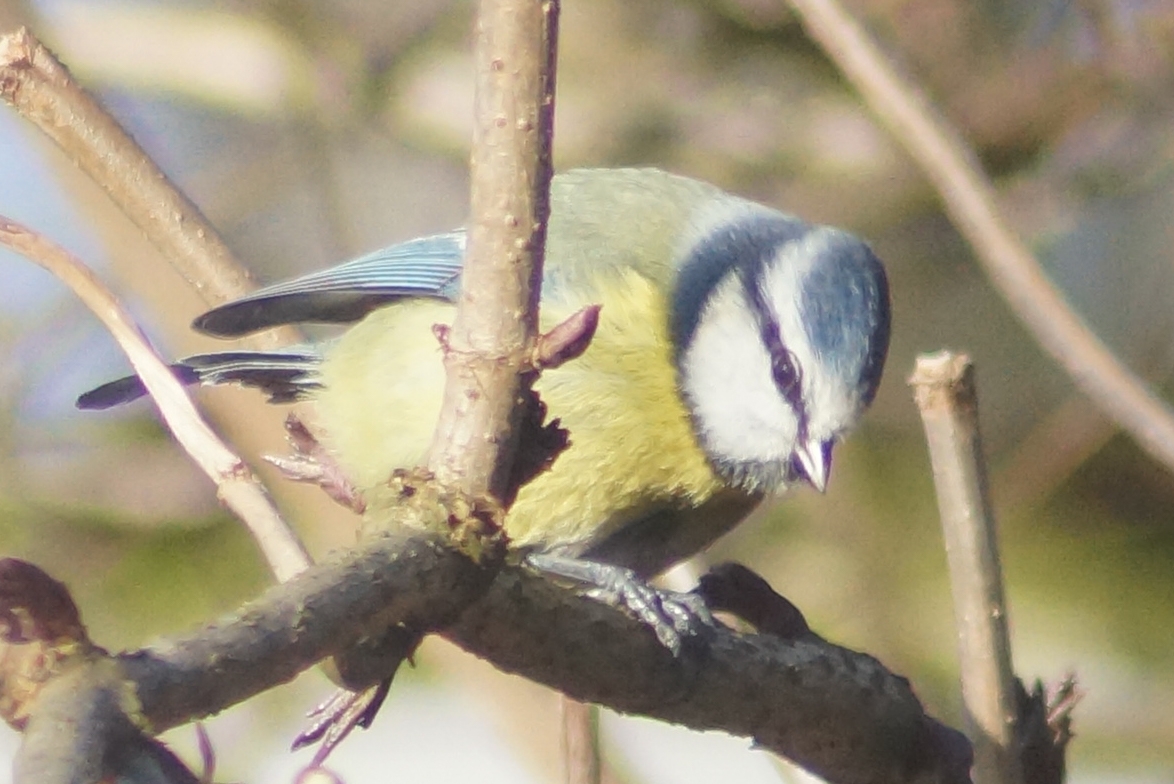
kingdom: Animalia
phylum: Chordata
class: Aves
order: Passeriformes
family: Paridae
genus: Cyanistes
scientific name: Cyanistes caeruleus
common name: Blåmejse
